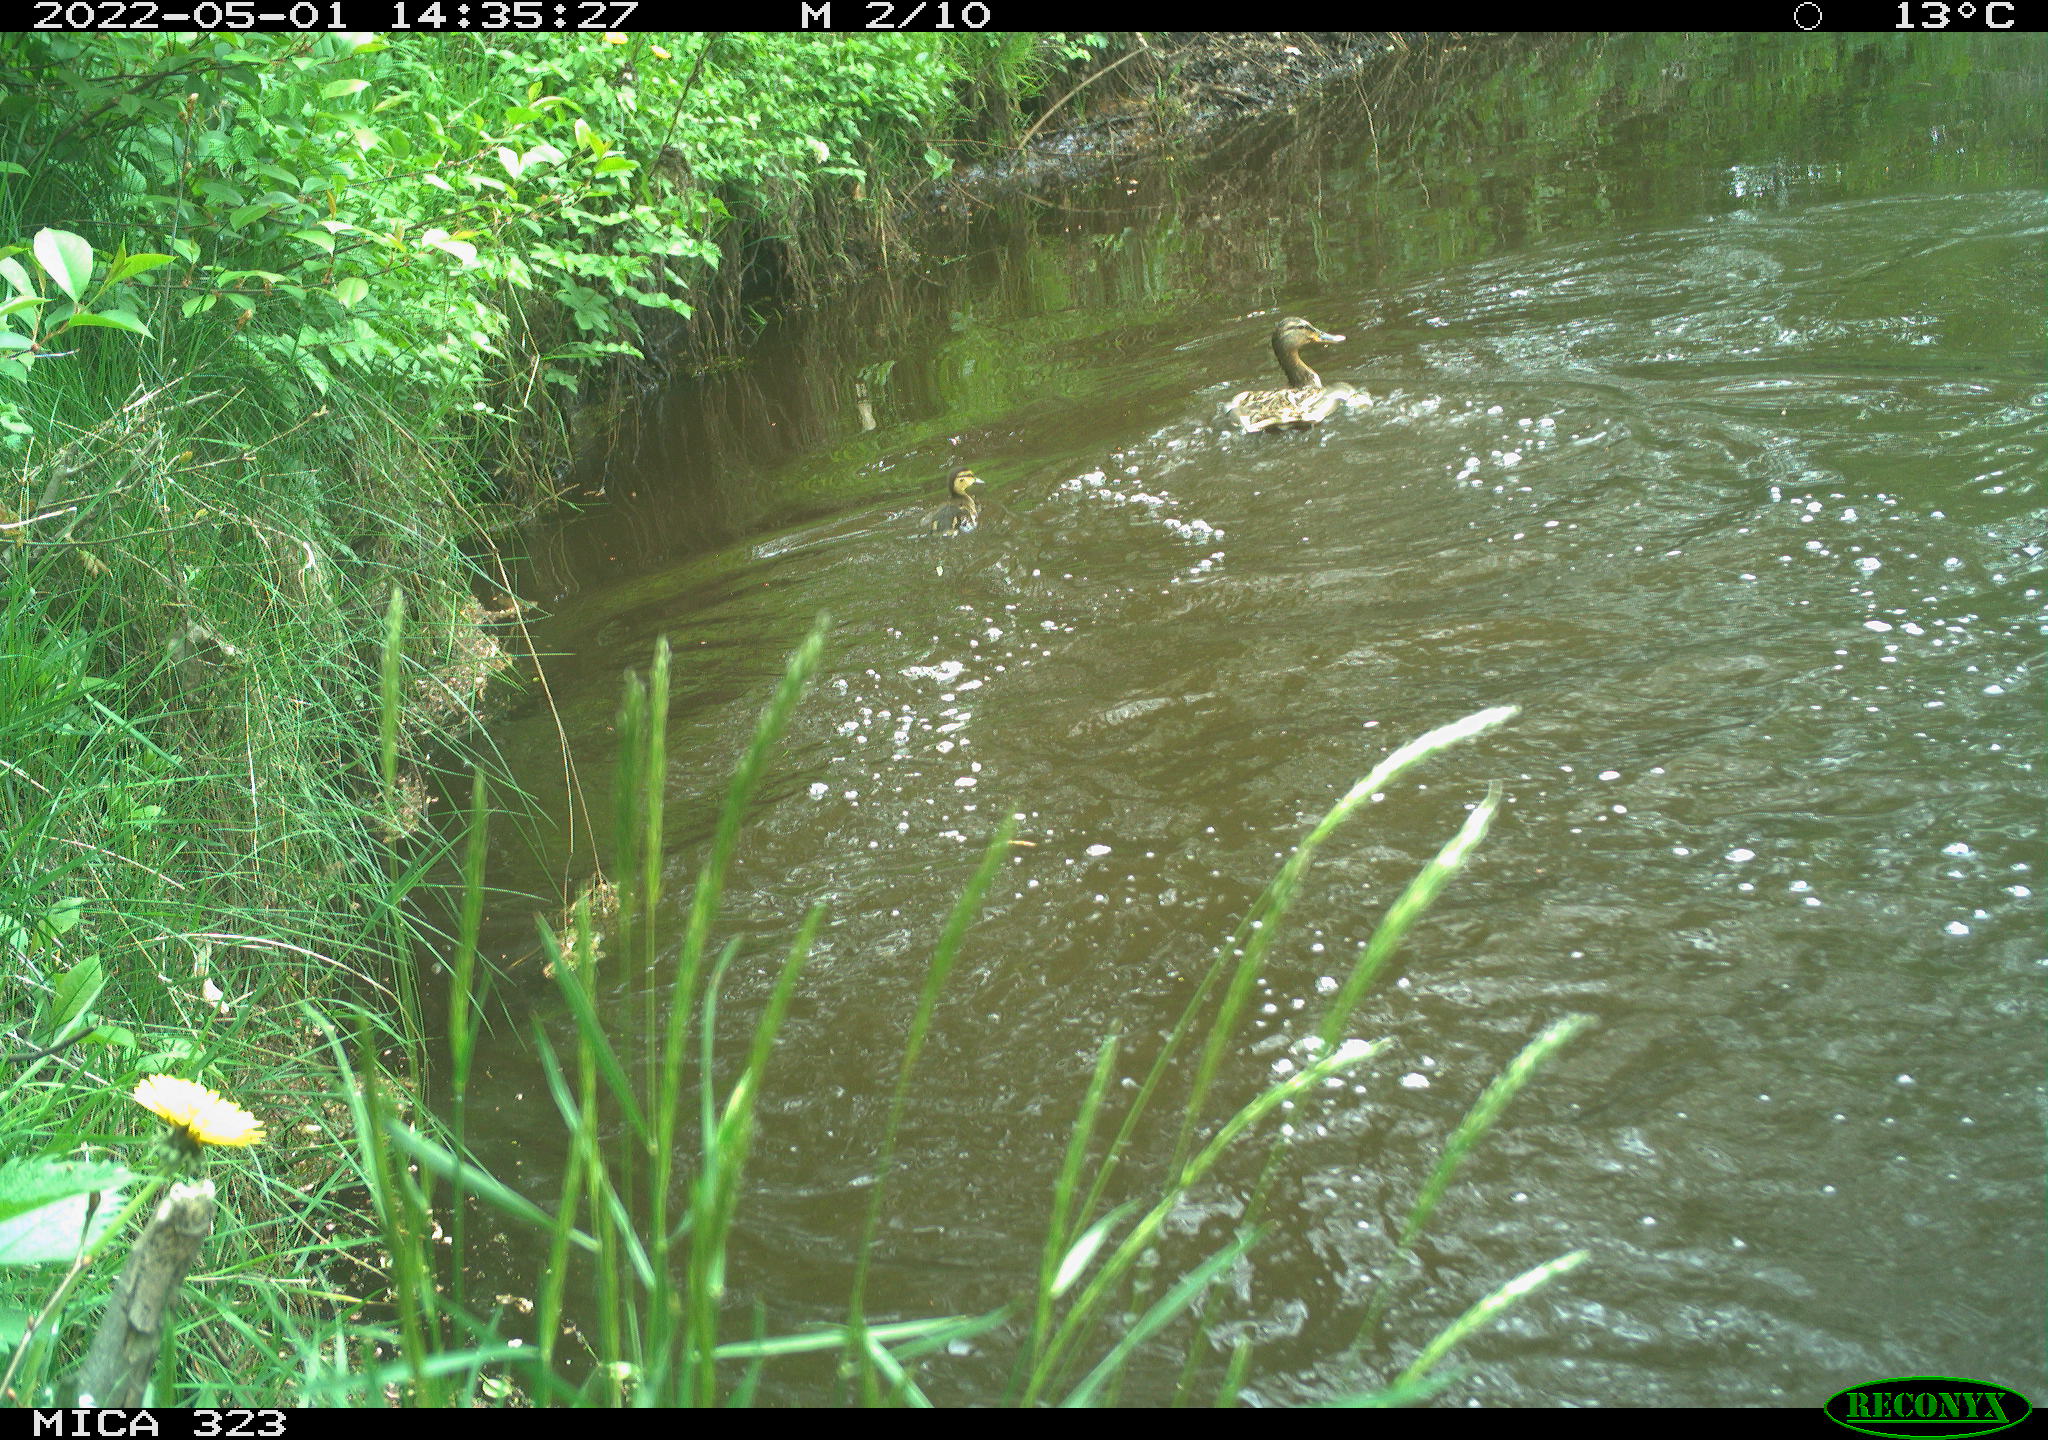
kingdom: Animalia
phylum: Chordata
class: Aves
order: Anseriformes
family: Anatidae
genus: Anas
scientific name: Anas platyrhynchos
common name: Mallard
